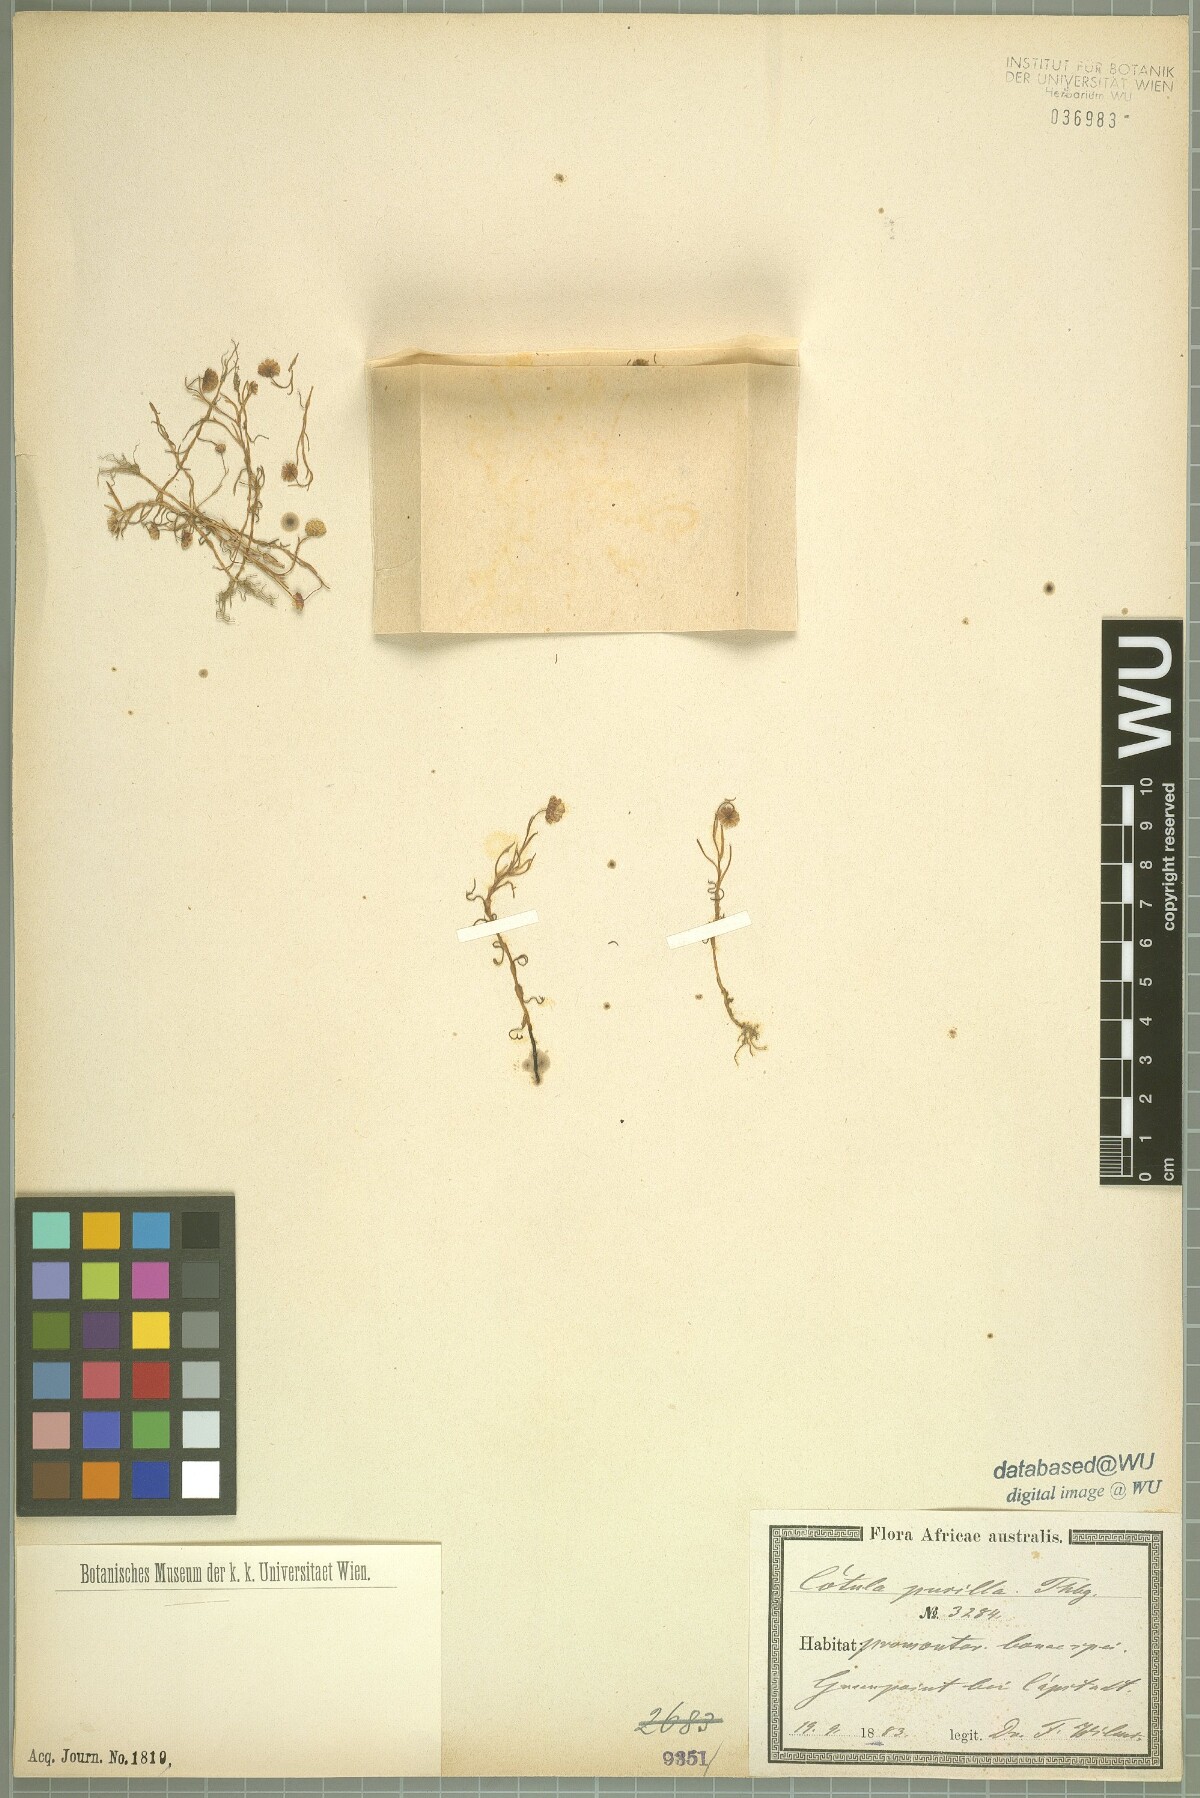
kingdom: Plantae
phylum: Tracheophyta
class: Magnoliopsida
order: Asterales
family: Asteraceae
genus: Cotula
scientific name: Cotula pusilla
